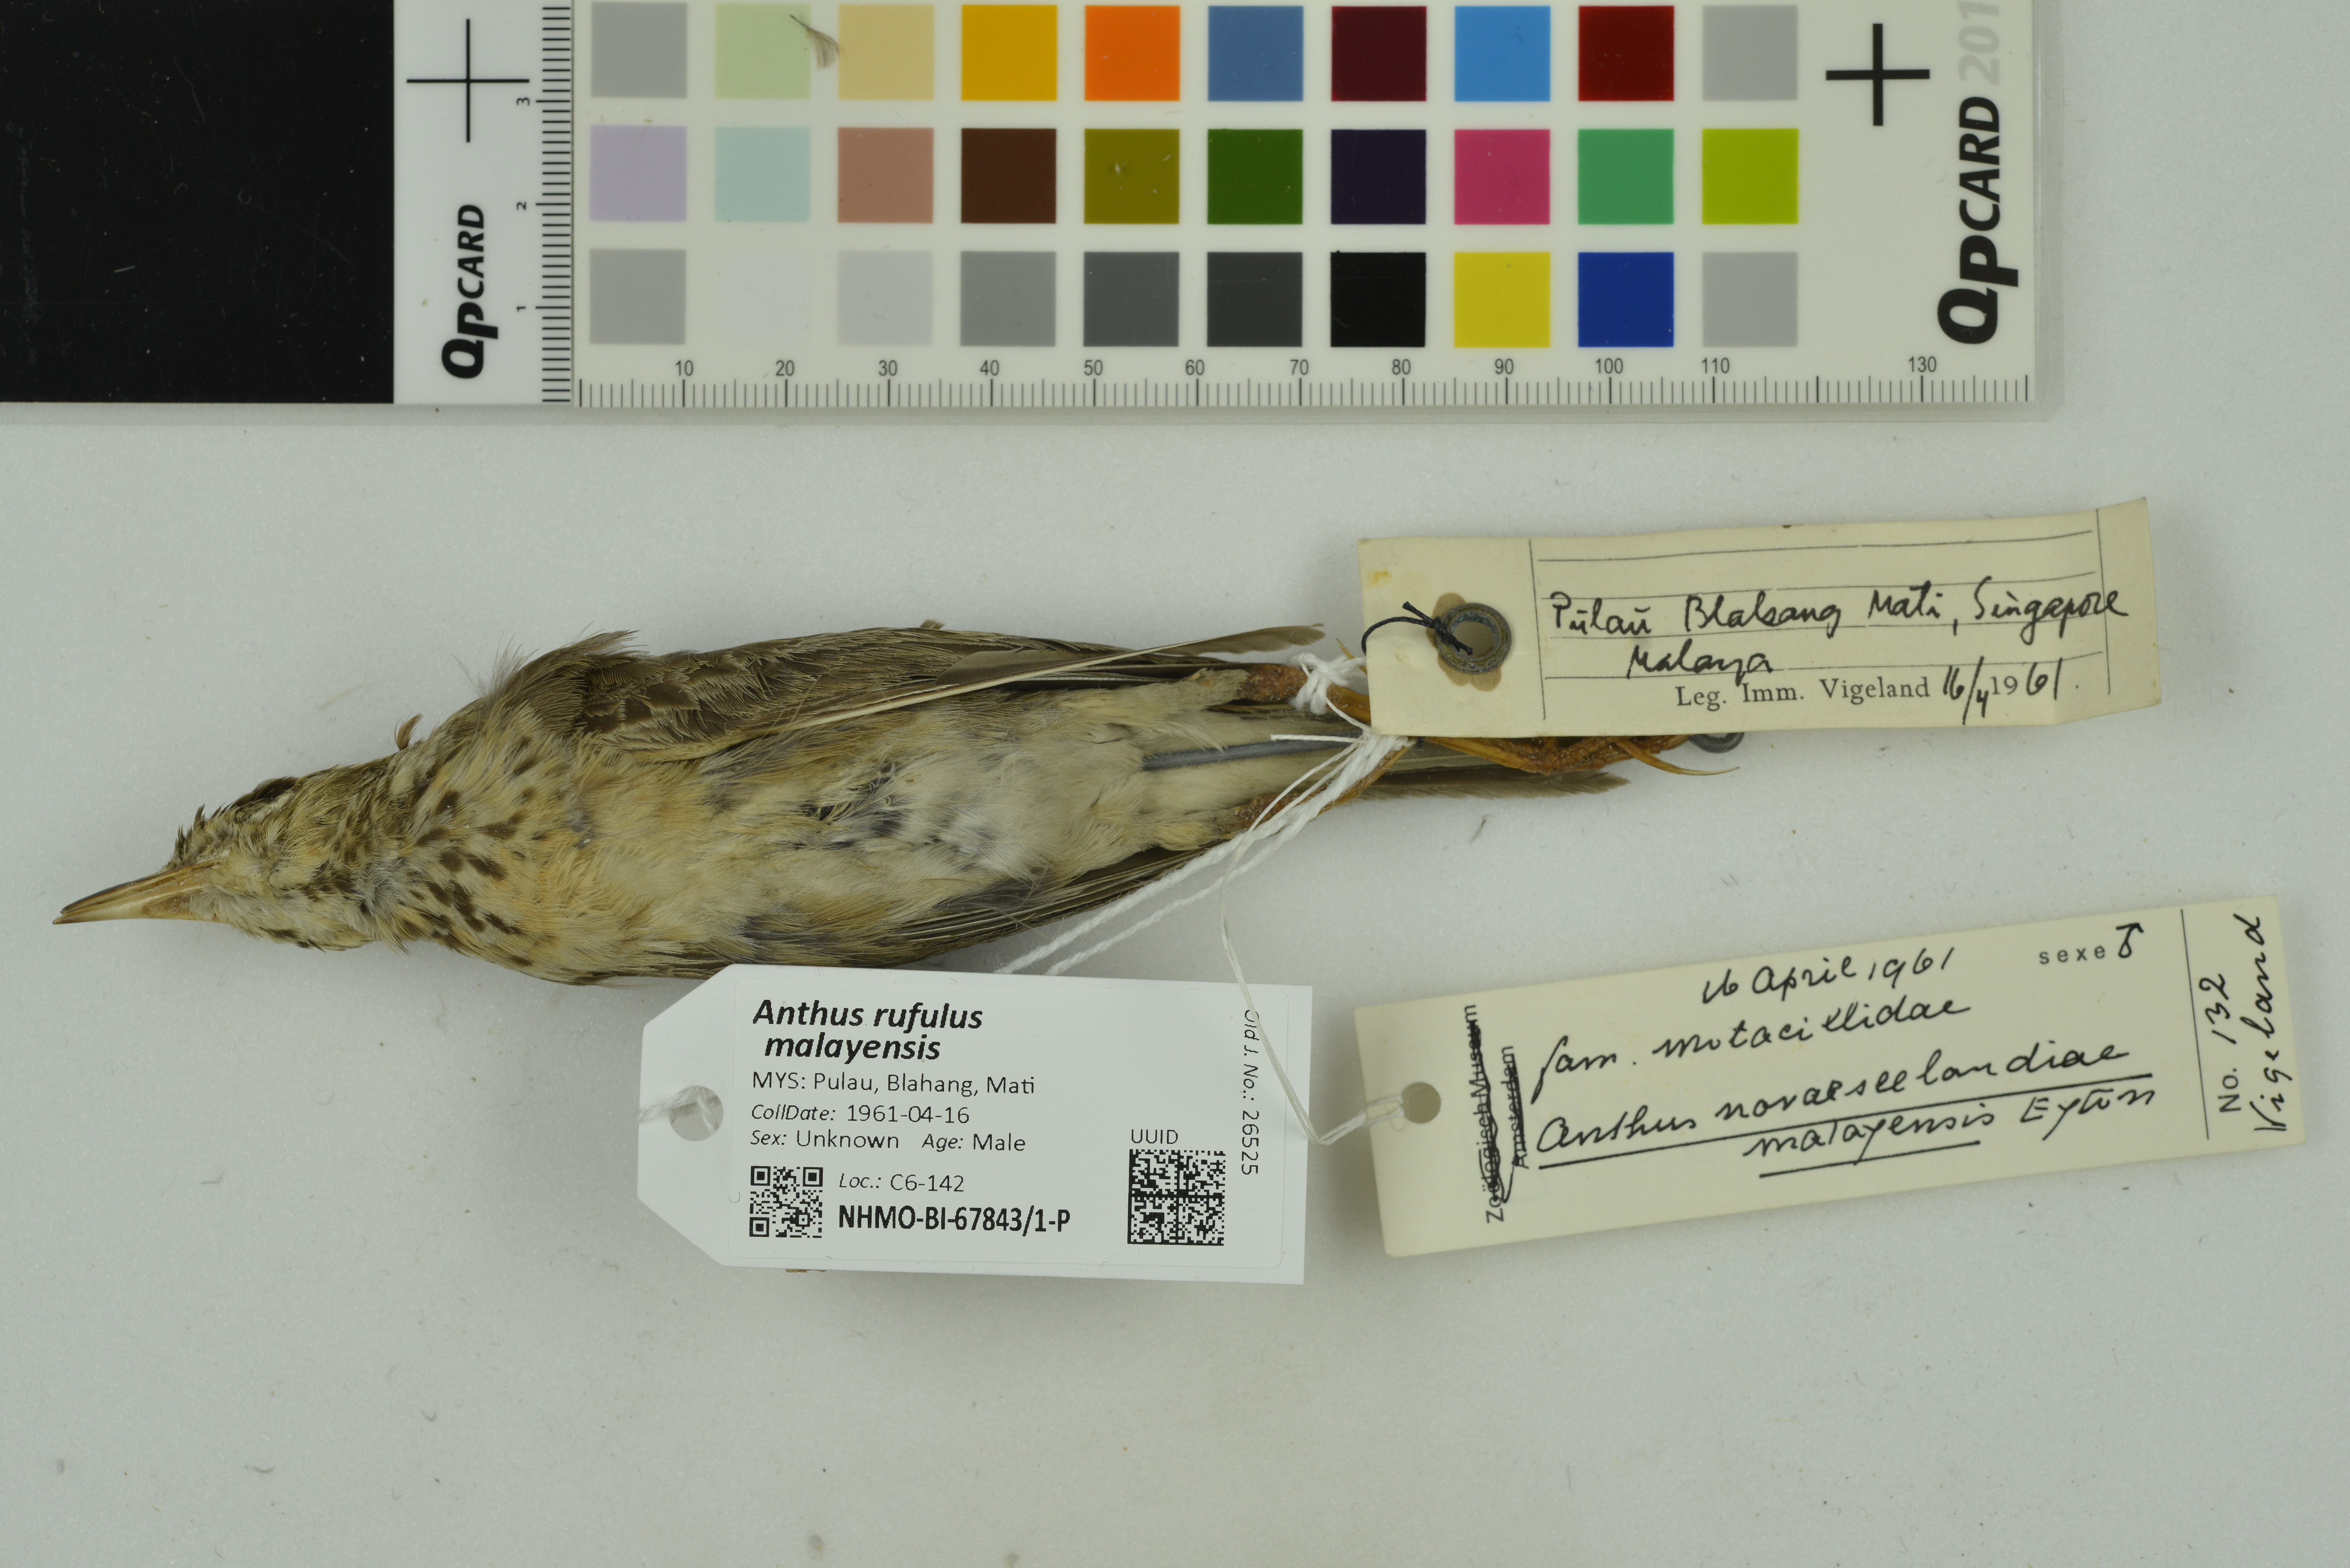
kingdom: Animalia
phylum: Chordata
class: Aves
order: Passeriformes
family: Motacillidae
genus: Anthus
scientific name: Anthus rufulus
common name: Paddyfield pipit
